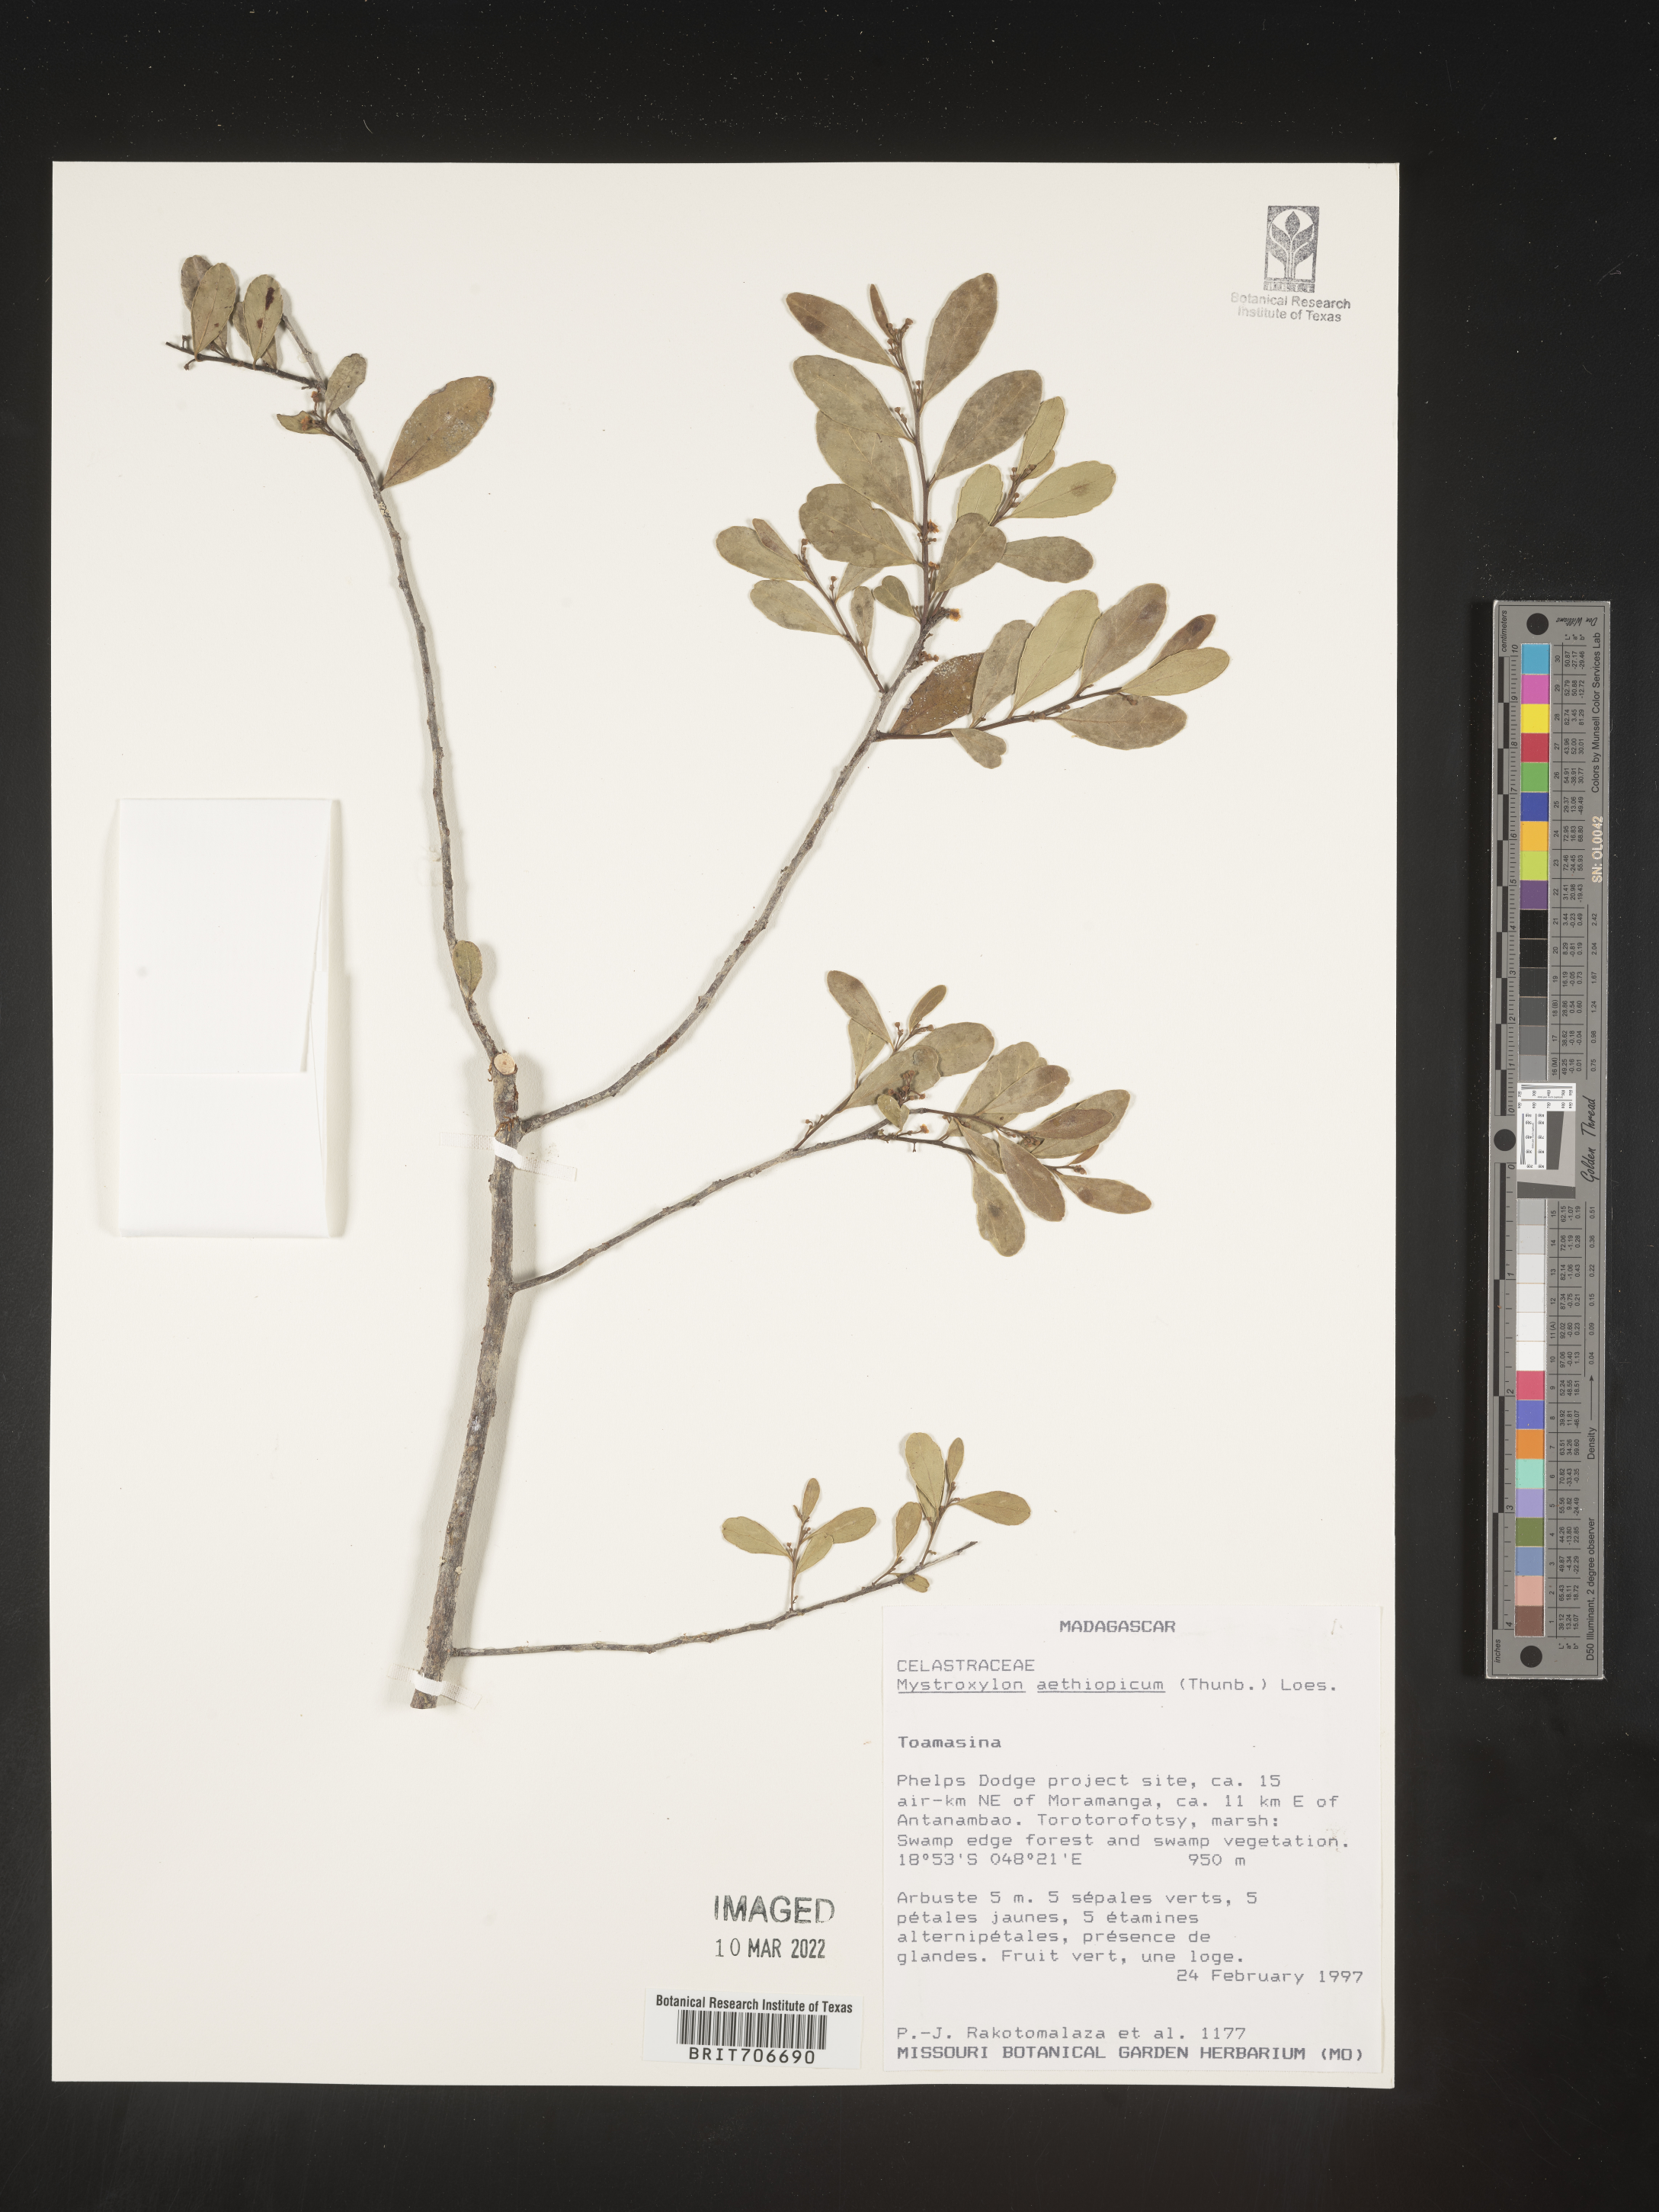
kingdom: Plantae
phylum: Tracheophyta
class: Magnoliopsida
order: Celastrales
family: Celastraceae
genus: Mystroxylon
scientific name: Mystroxylon
